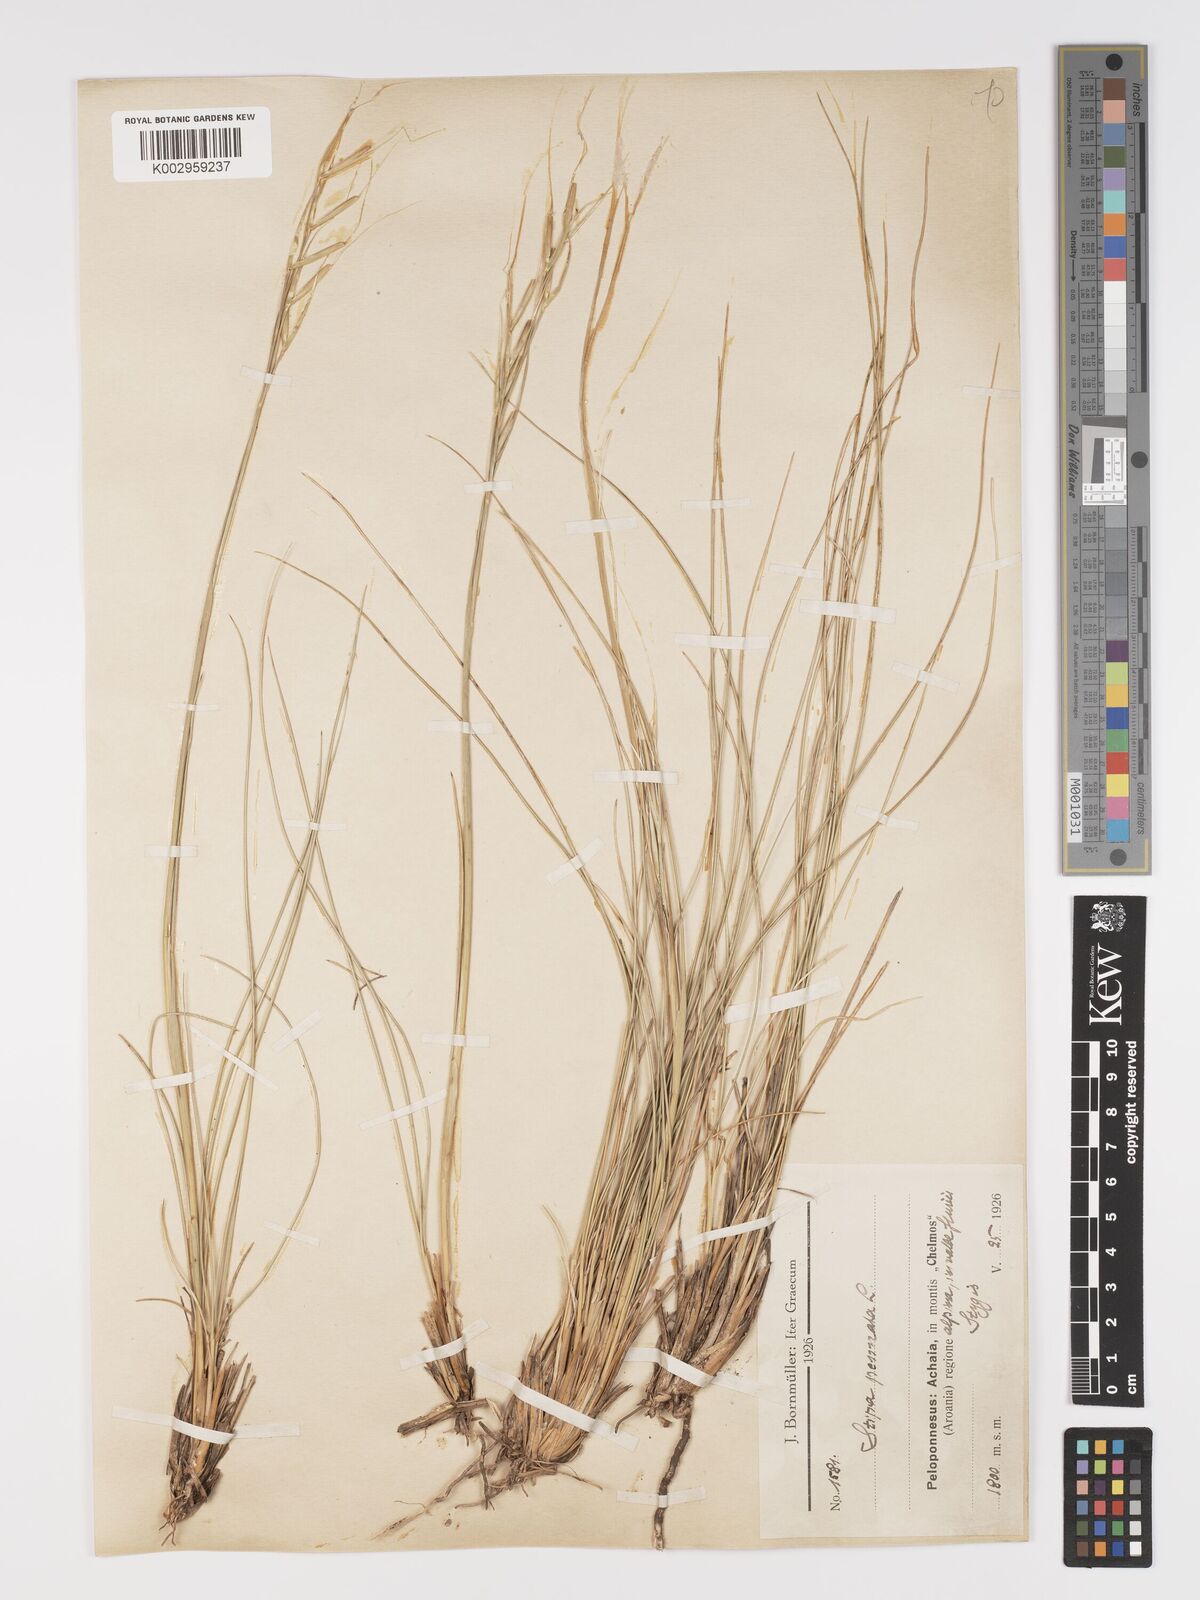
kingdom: Plantae
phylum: Tracheophyta
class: Liliopsida
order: Poales
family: Poaceae
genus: Stipa
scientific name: Stipa pennata
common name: European feather grass
